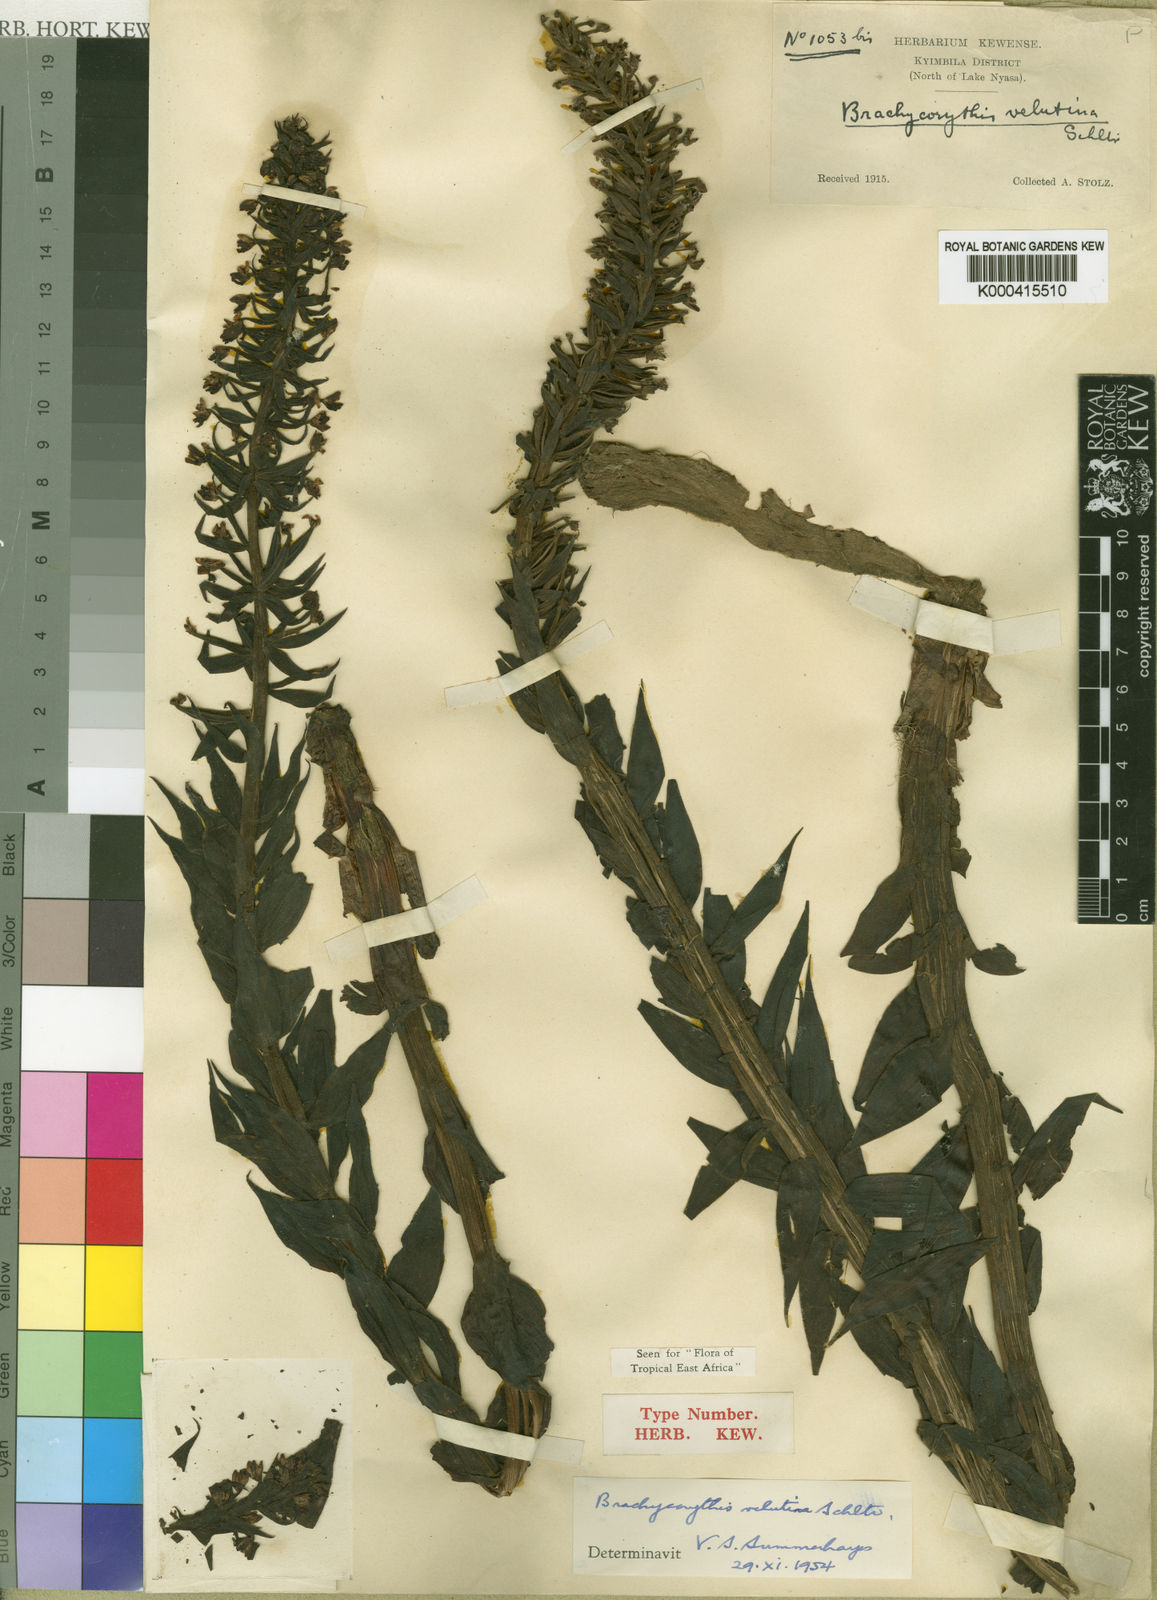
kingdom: Plantae
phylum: Tracheophyta
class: Liliopsida
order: Asparagales
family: Orchidaceae
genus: Brachycorythis
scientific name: Brachycorythis velutina
